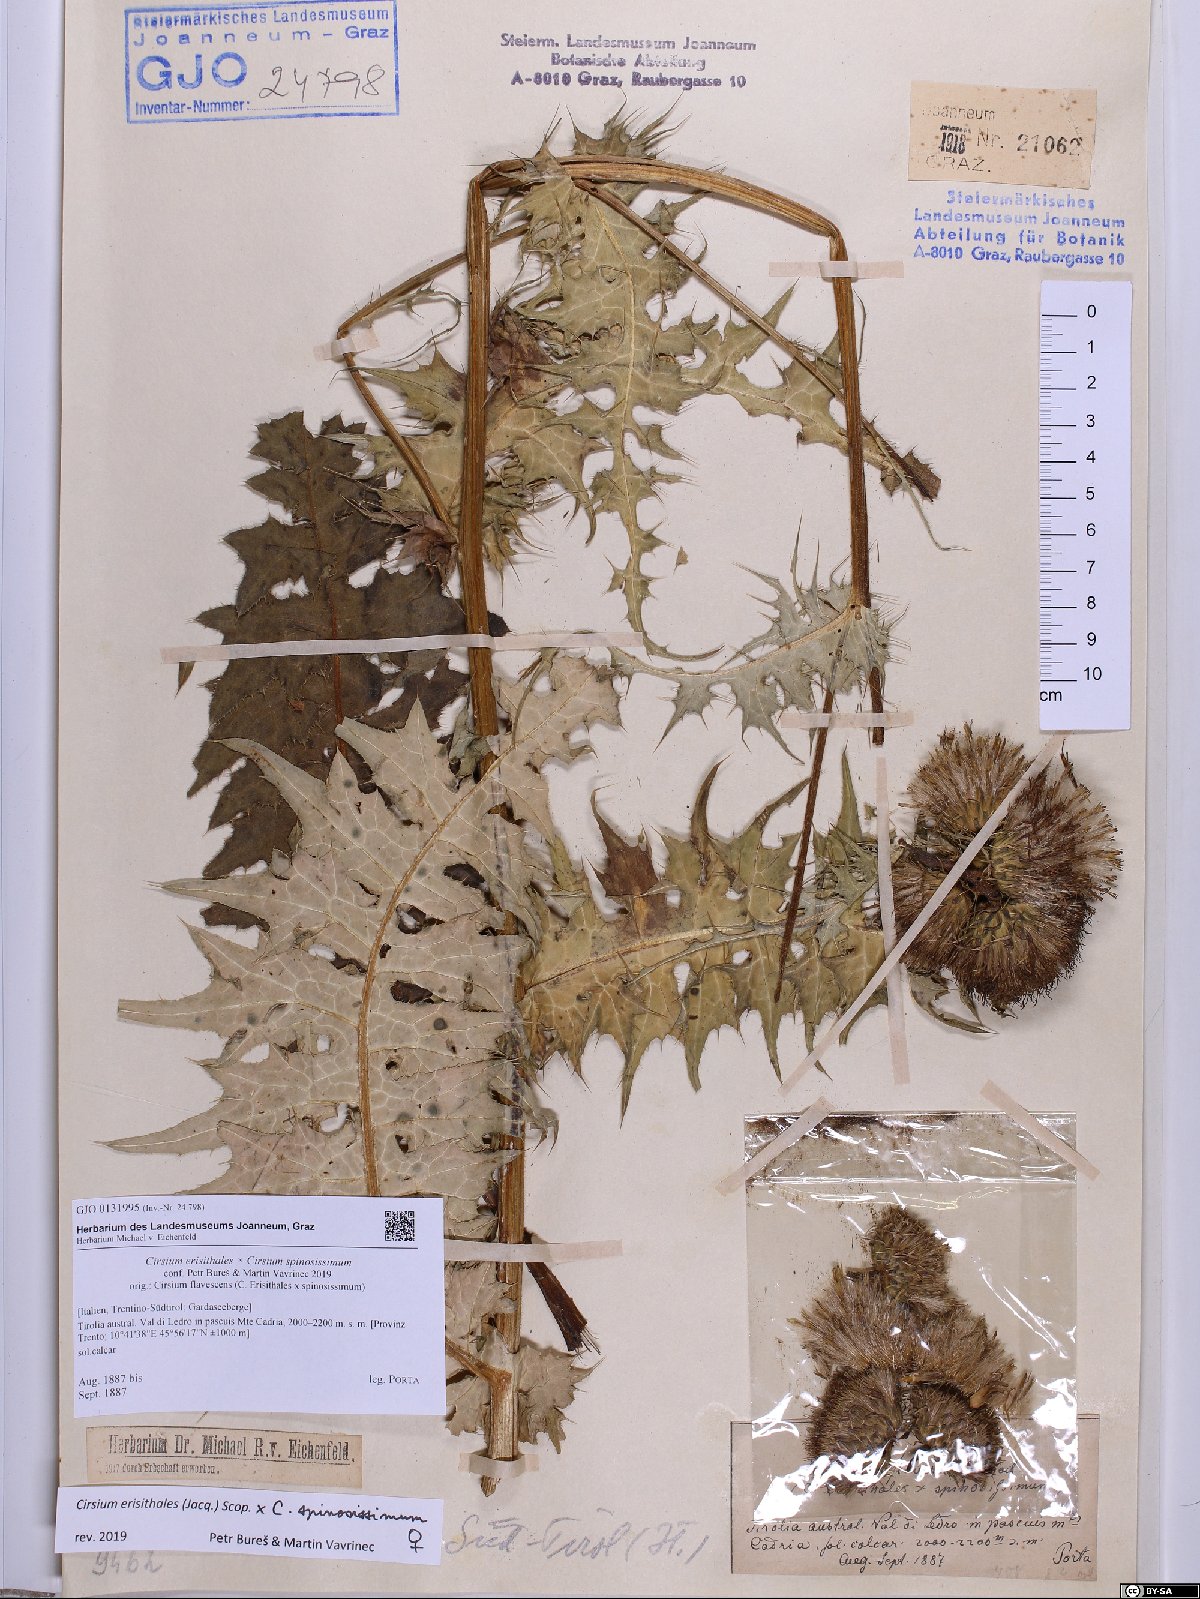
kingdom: Plantae
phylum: Tracheophyta
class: Magnoliopsida
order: Asterales
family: Asteraceae
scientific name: Asteraceae
